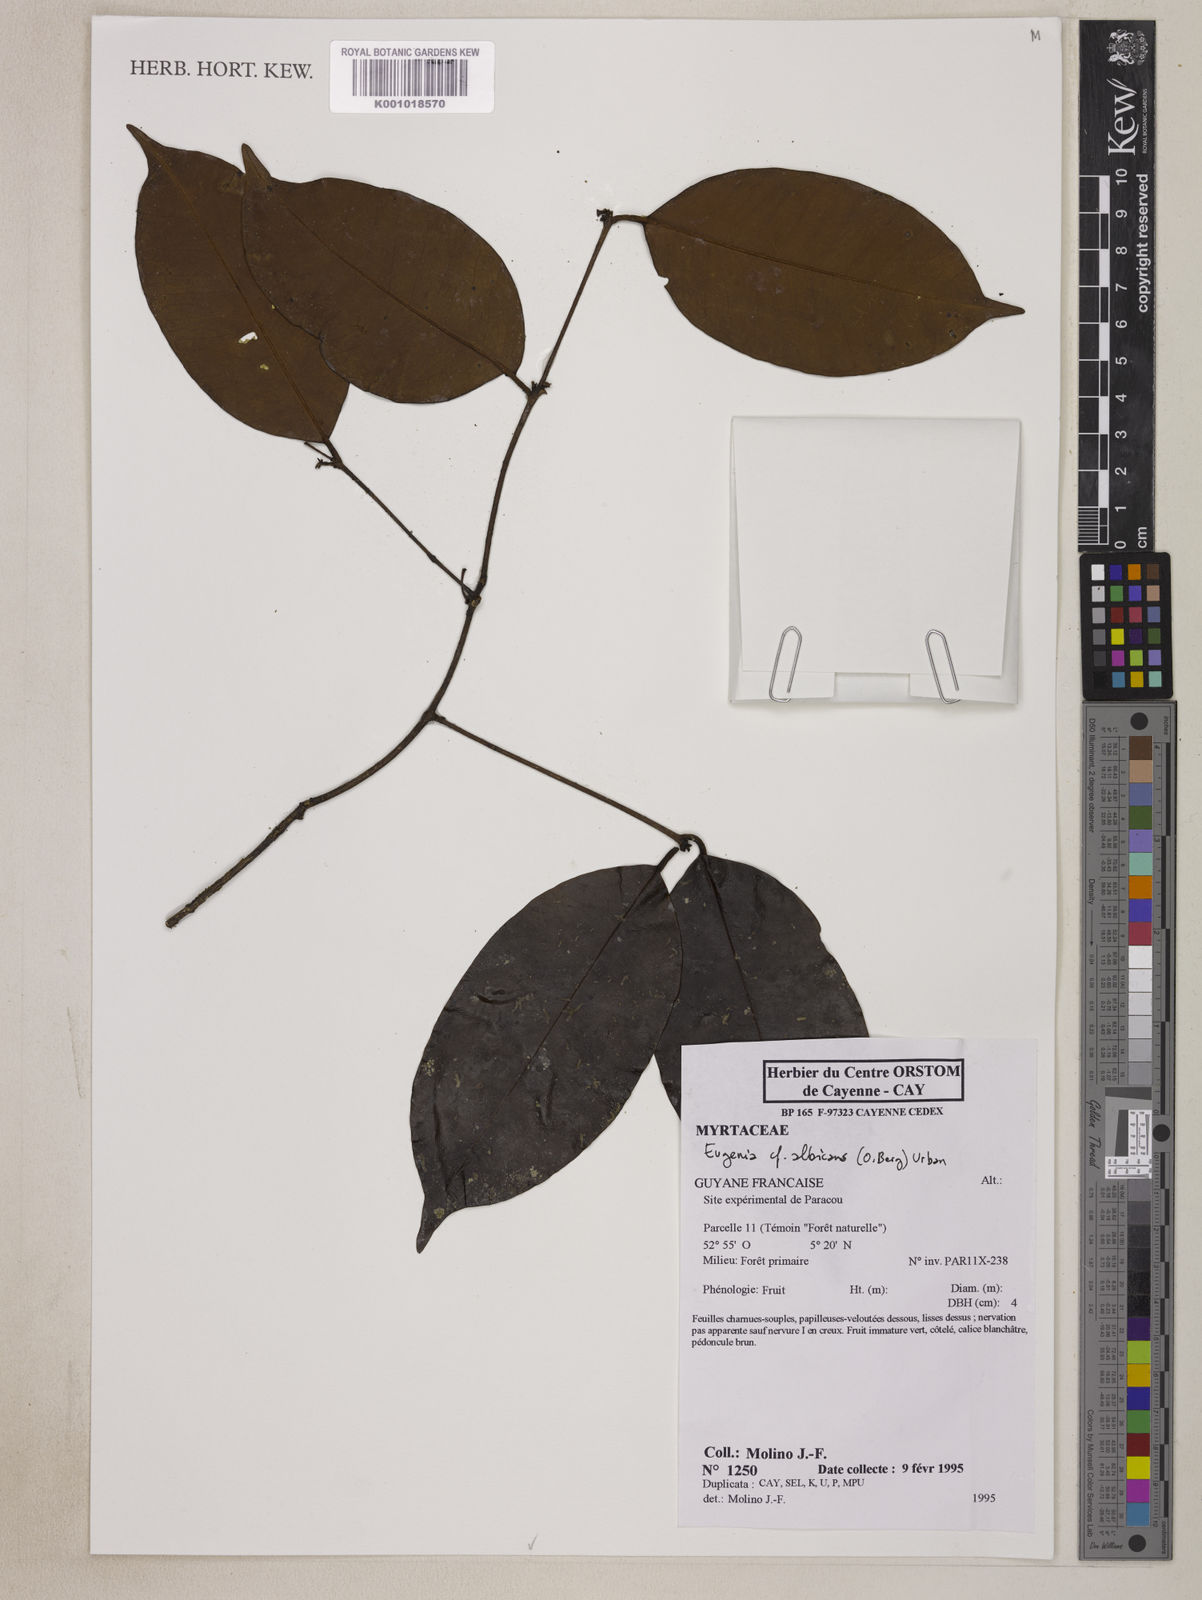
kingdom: Plantae
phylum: Tracheophyta
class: Magnoliopsida
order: Myrtales
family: Myrtaceae
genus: Eugenia
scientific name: Eugenia albicans
